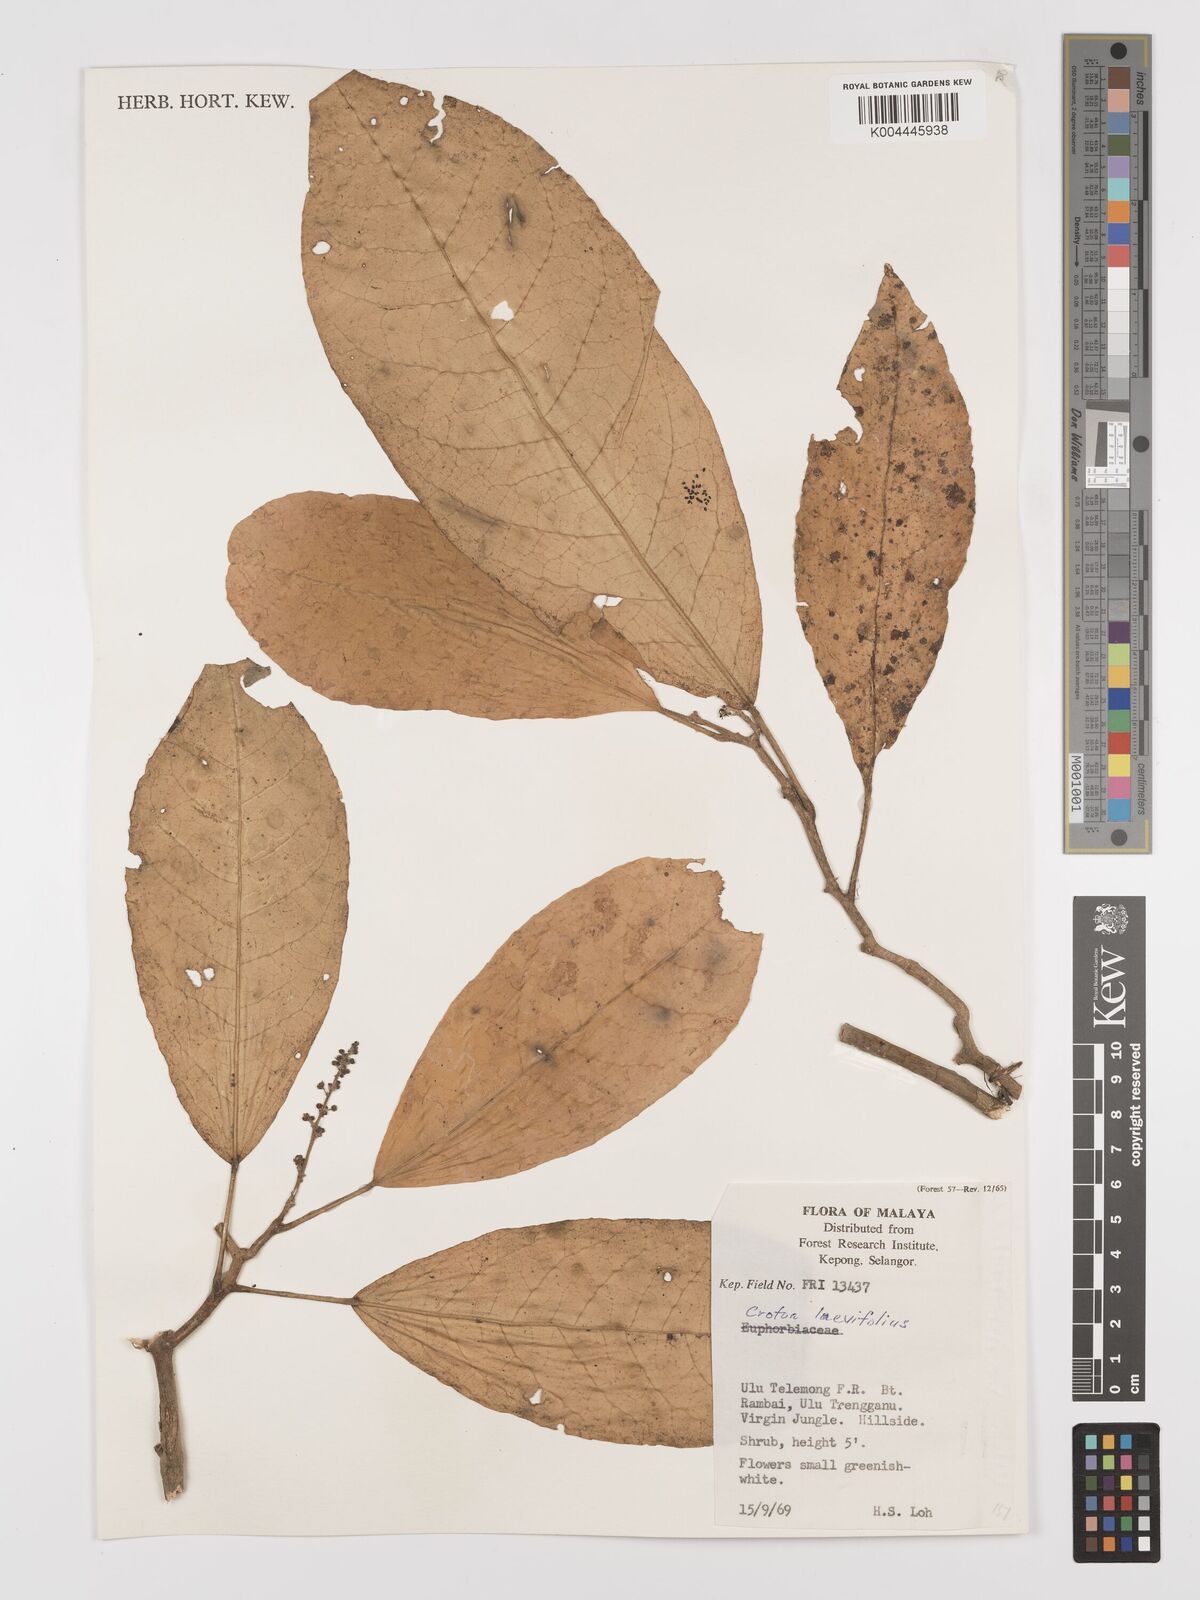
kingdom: Plantae
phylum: Tracheophyta
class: Magnoliopsida
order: Malpighiales
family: Euphorbiaceae
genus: Croton
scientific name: Croton griffithii
